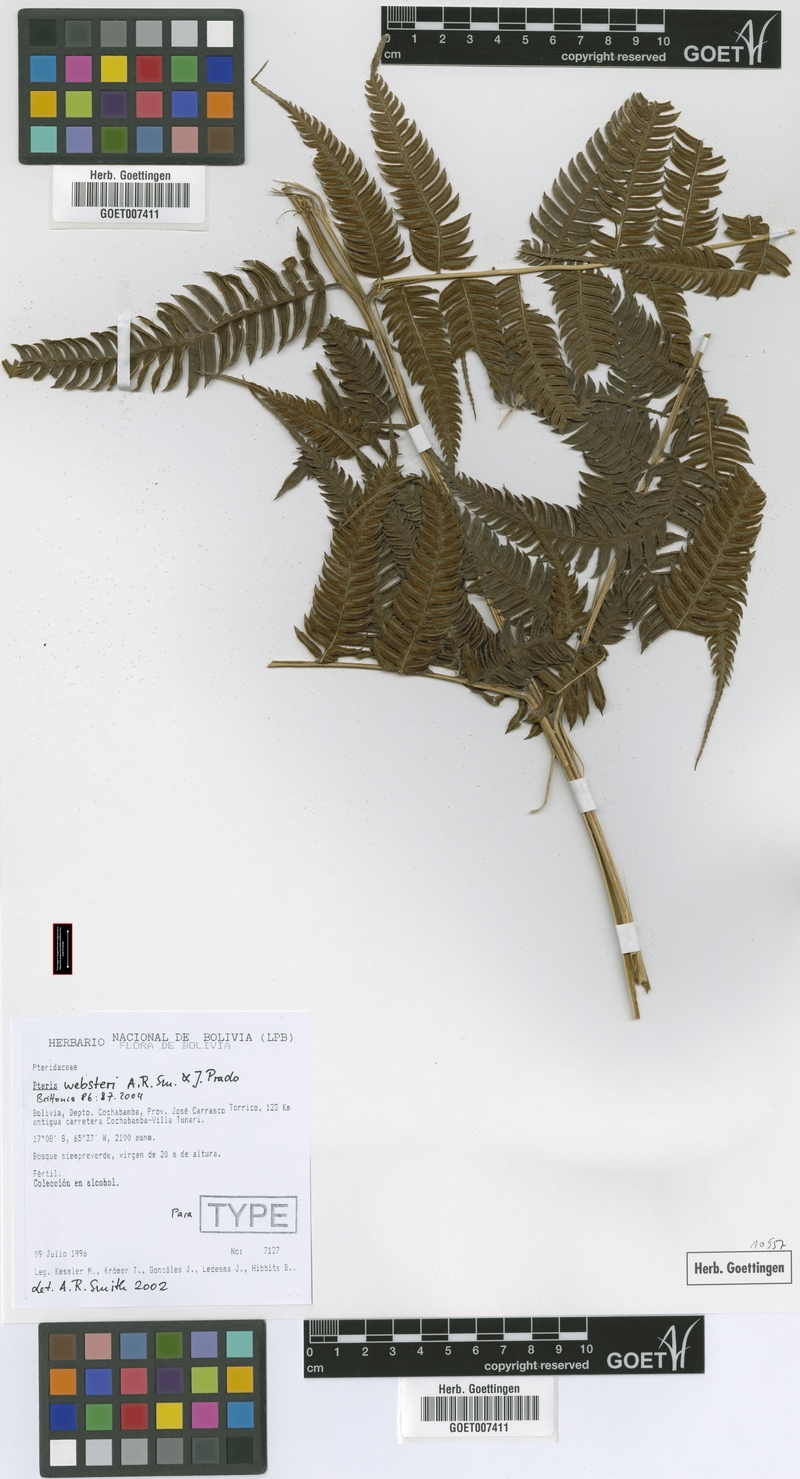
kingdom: Plantae
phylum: Tracheophyta
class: Polypodiopsida
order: Polypodiales
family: Pteridaceae
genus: Pteris
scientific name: Pteris websteri
